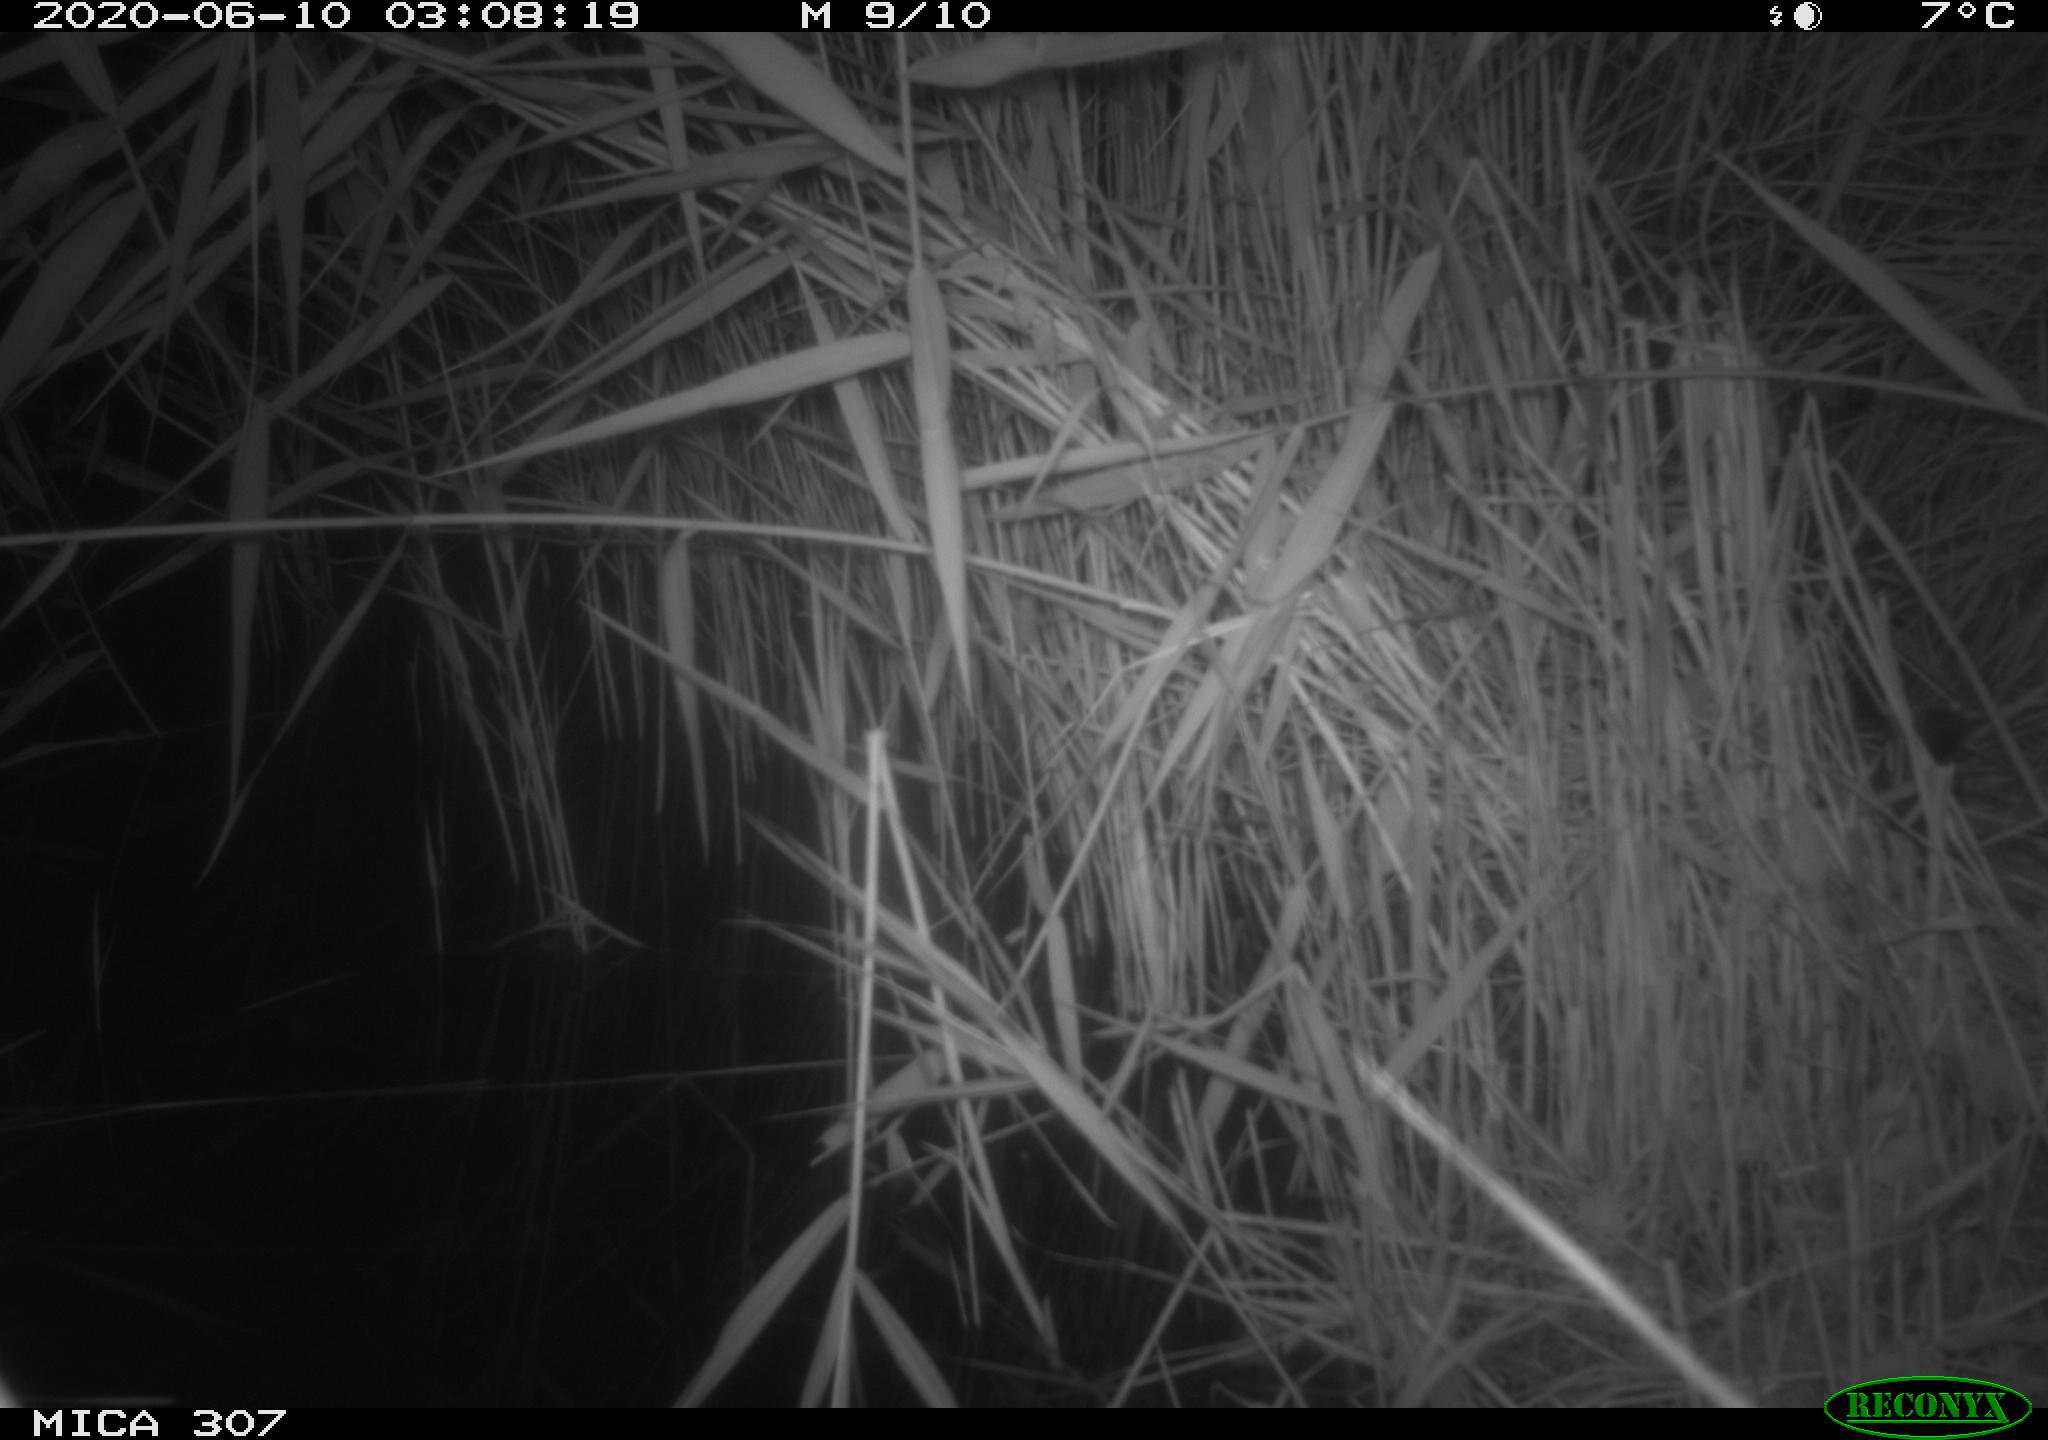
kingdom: Animalia
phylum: Chordata
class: Mammalia
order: Rodentia
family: Muridae
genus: Rattus
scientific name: Rattus norvegicus
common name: Brown rat
